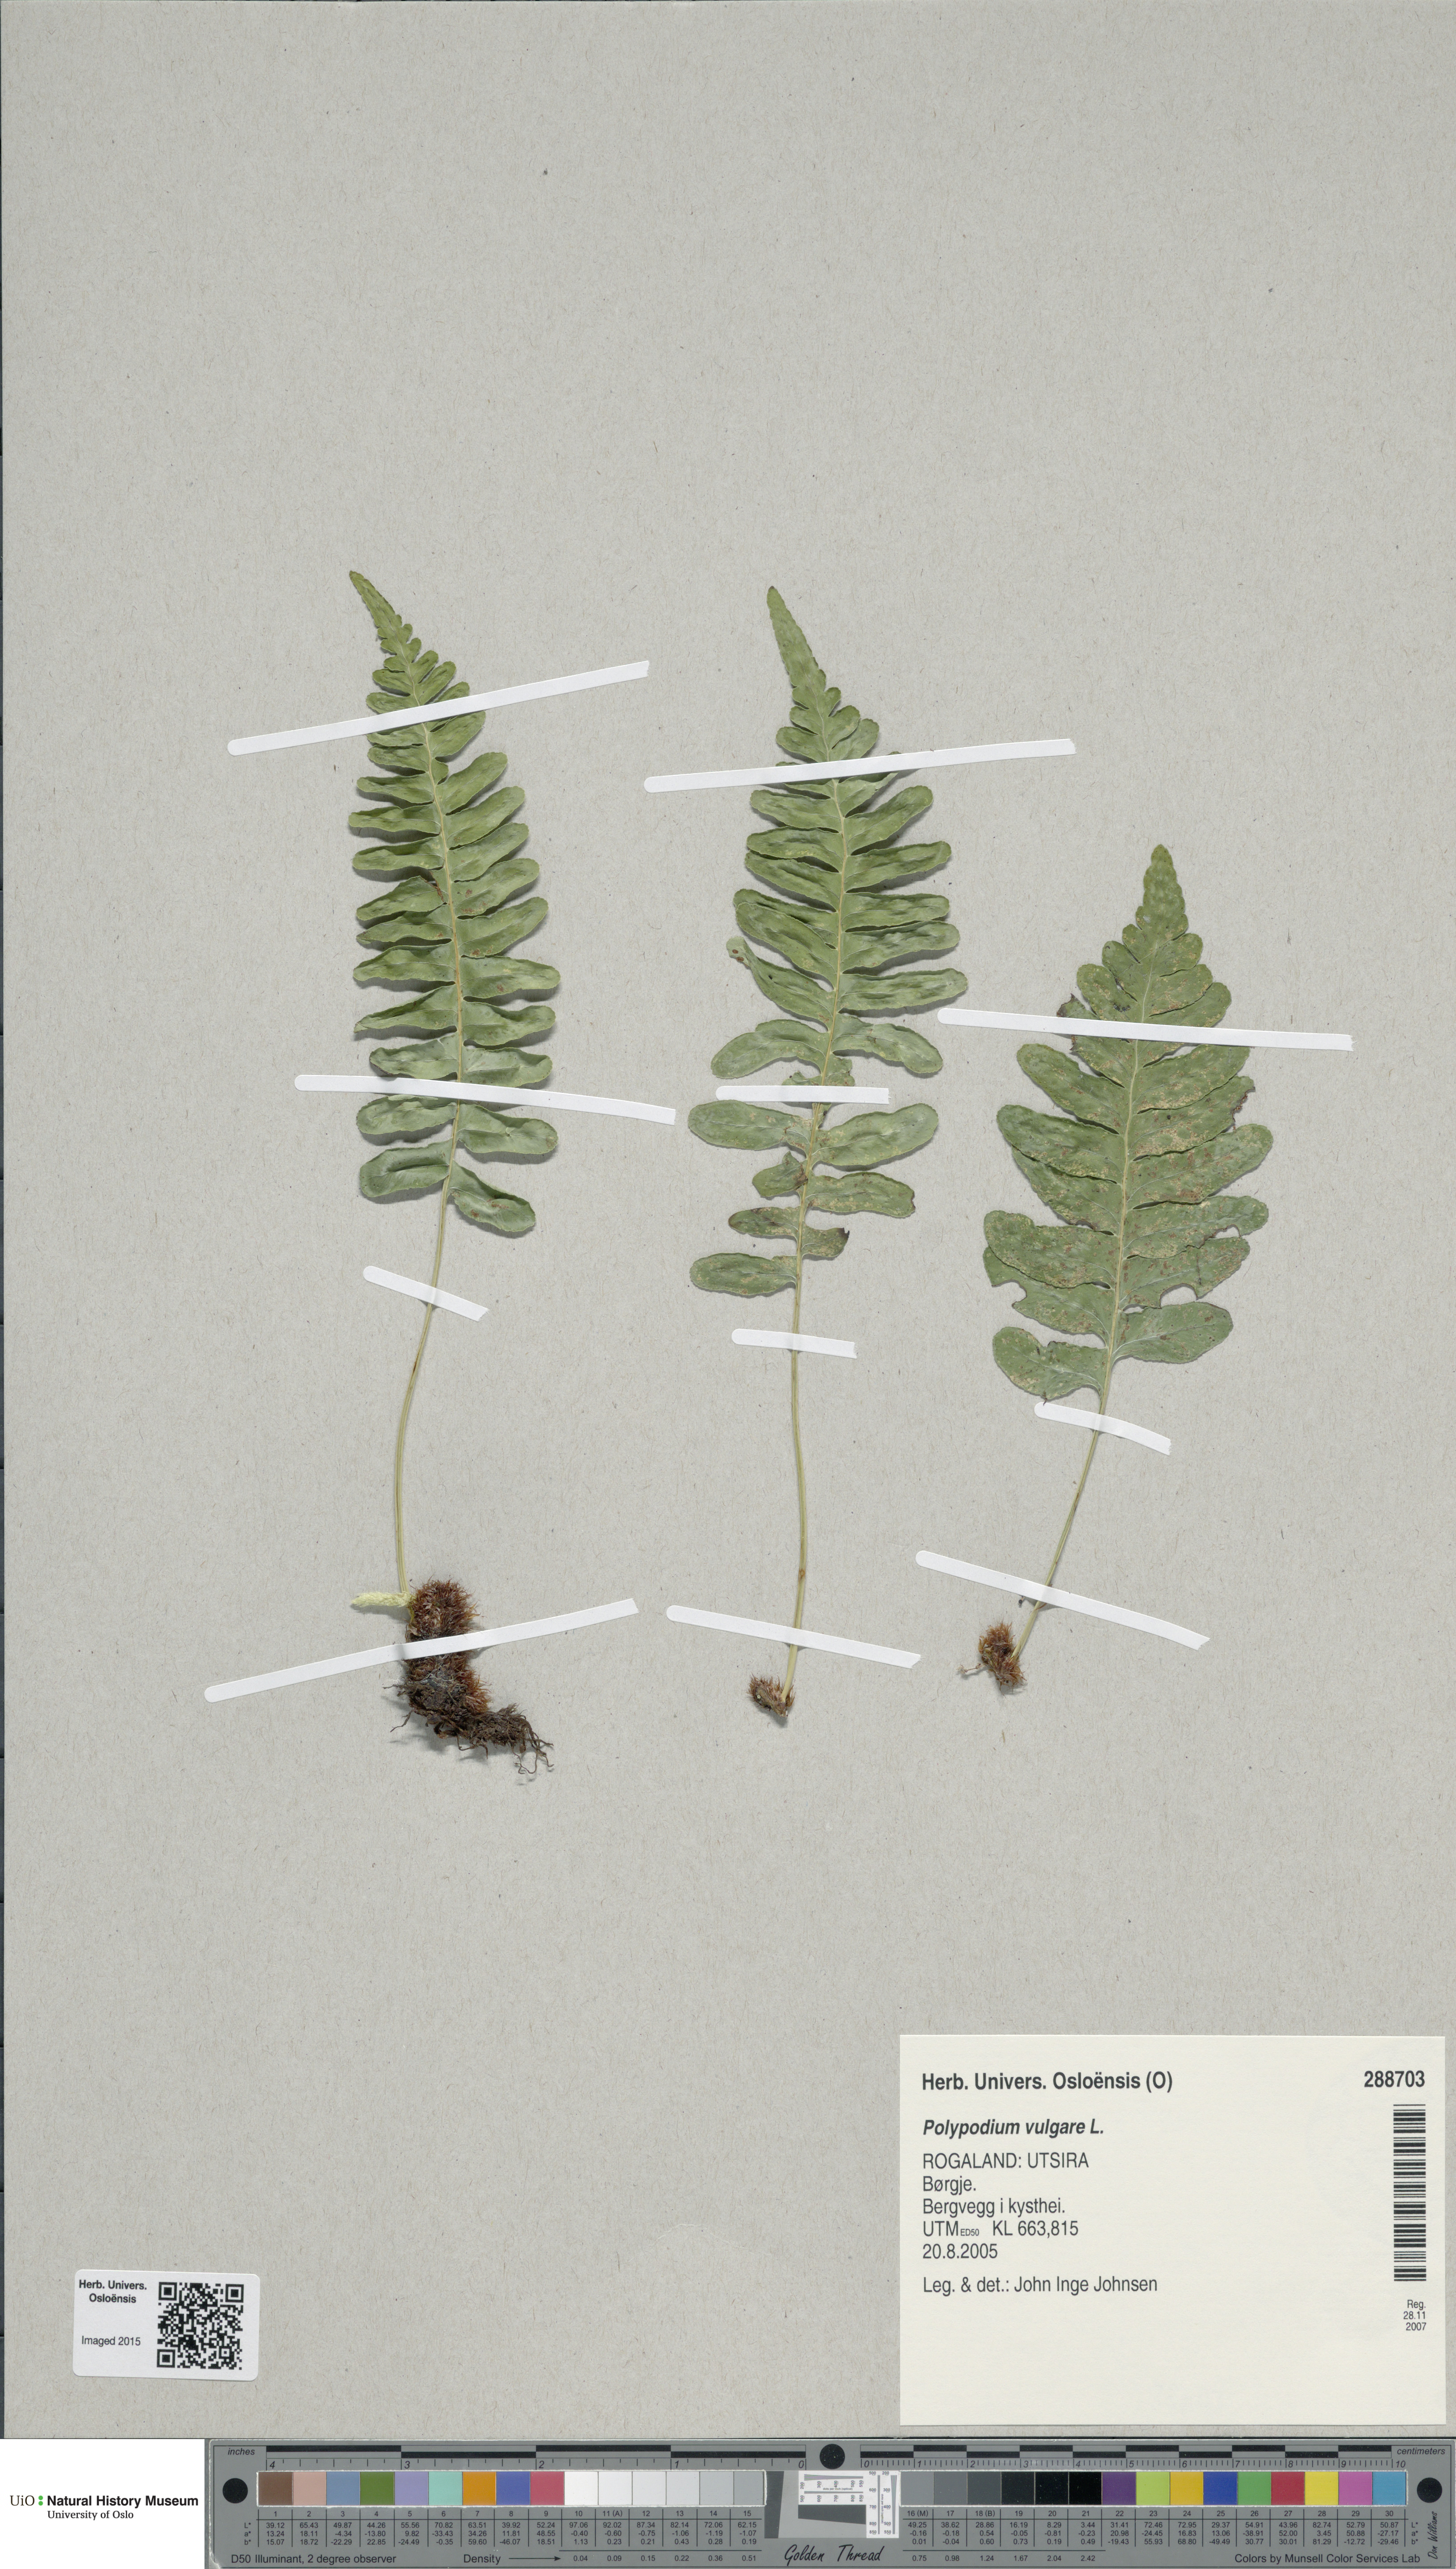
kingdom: Plantae
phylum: Tracheophyta
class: Polypodiopsida
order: Polypodiales
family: Polypodiaceae
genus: Polypodium
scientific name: Polypodium vulgare
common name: Common polypody
